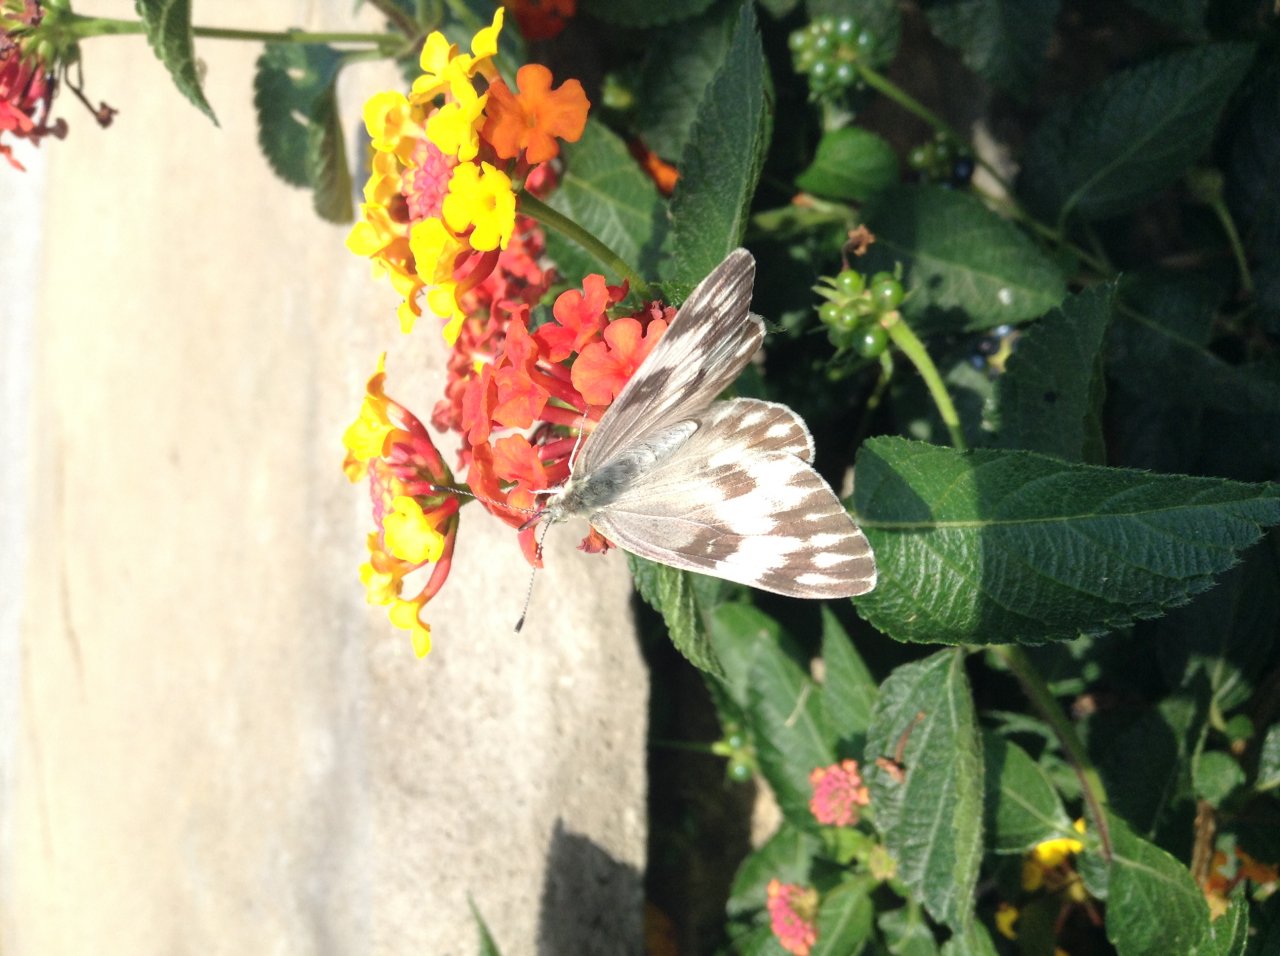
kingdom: Animalia
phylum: Arthropoda
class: Insecta
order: Lepidoptera
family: Pieridae
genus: Pontia
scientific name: Pontia protodice
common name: Checkered White
